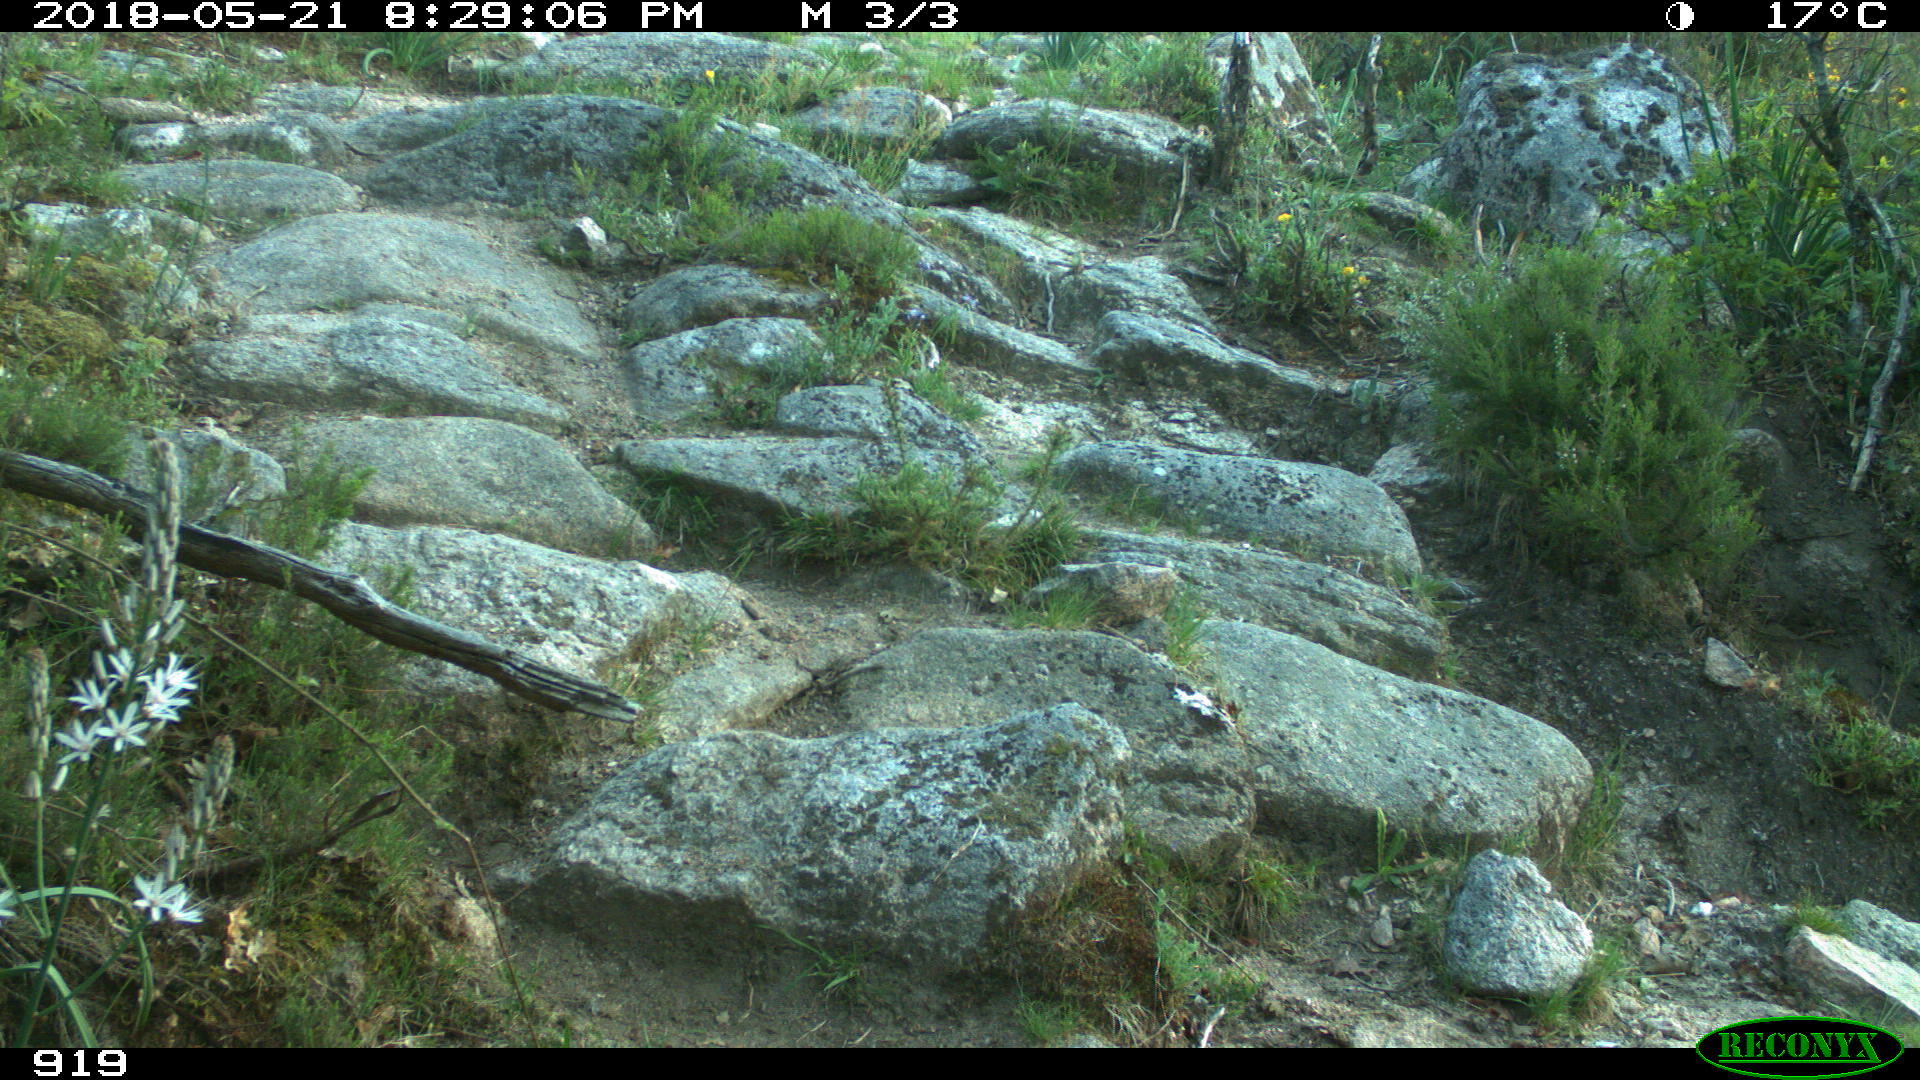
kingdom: Animalia
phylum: Chordata
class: Mammalia
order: Artiodactyla
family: Bovidae
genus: Bos
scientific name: Bos taurus
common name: Domesticated cattle
